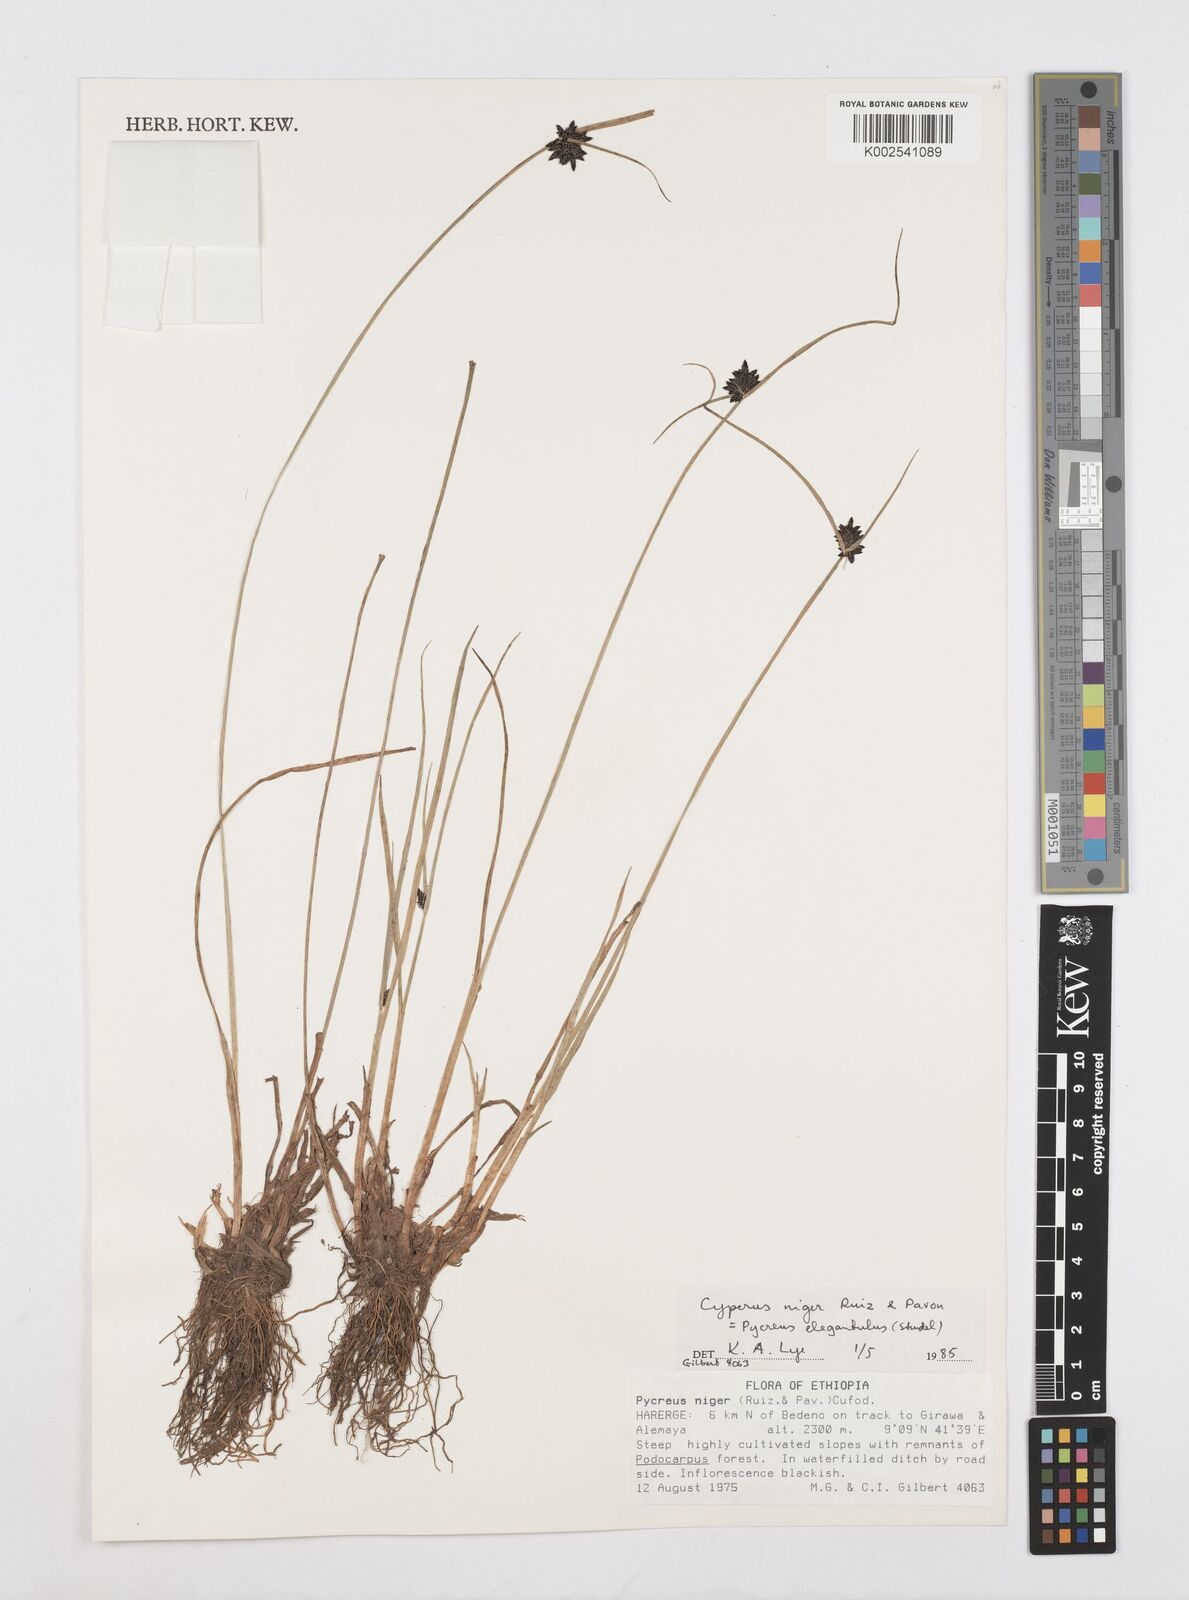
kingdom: Plantae
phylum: Tracheophyta
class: Liliopsida
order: Poales
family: Cyperaceae
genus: Cyperus
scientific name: Cyperus elegantulus
